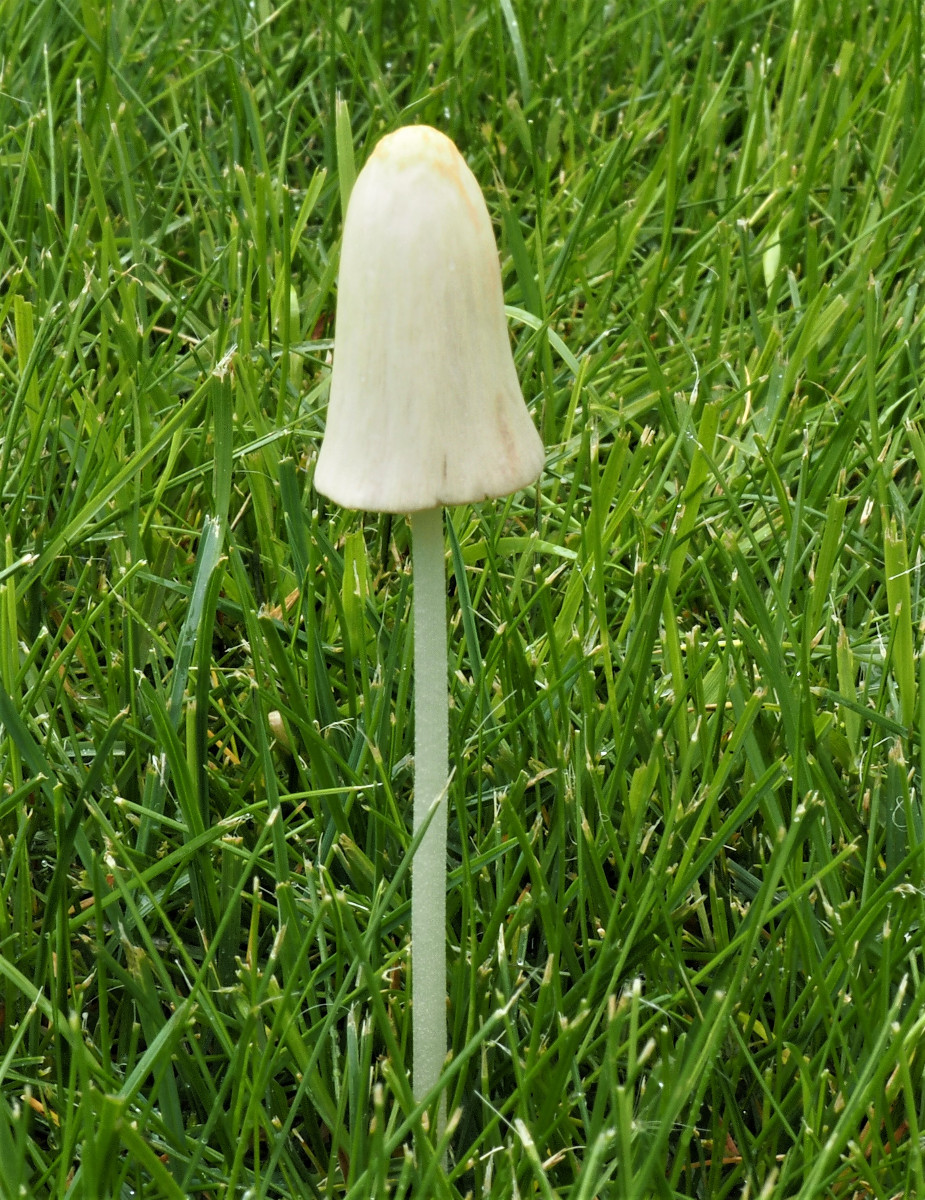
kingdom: Fungi
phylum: Basidiomycota
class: Agaricomycetes
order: Agaricales
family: Bolbitiaceae
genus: Conocybe
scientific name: Conocybe apala
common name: mælkehvid keglehat
